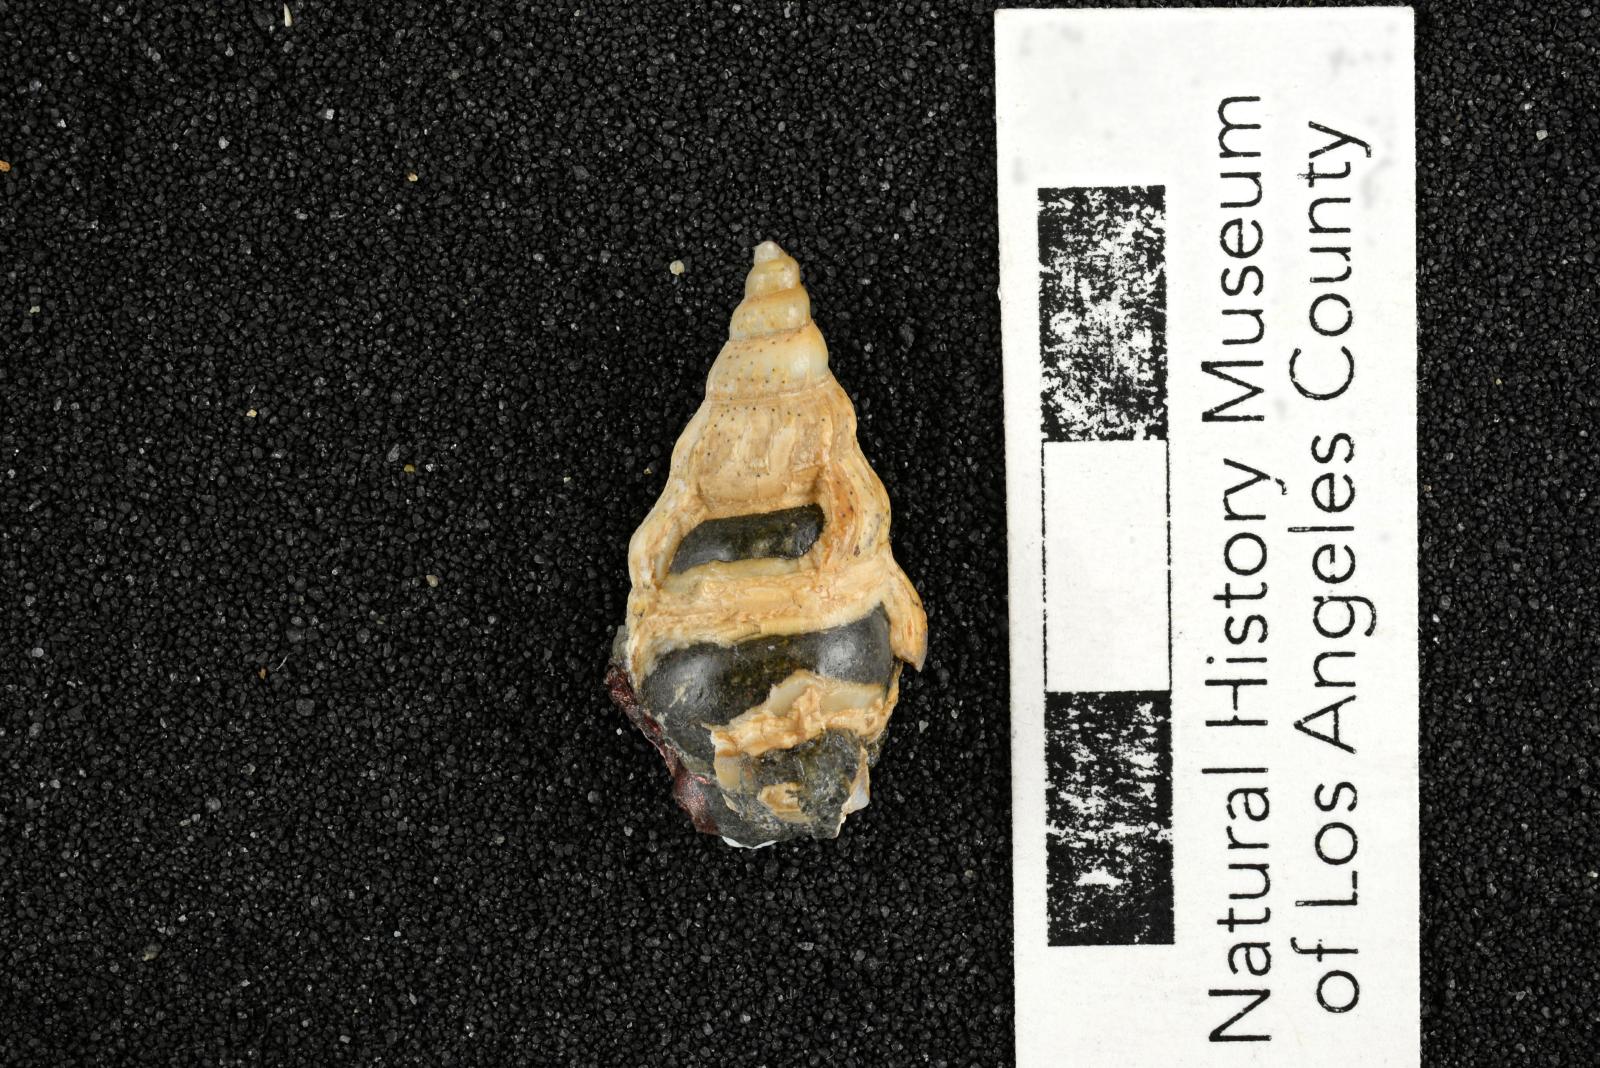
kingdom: Animalia
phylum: Mollusca
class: Gastropoda
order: Littorinimorpha
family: Aporrhaidae
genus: Latiala
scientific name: Latiala Alaria nodosa
